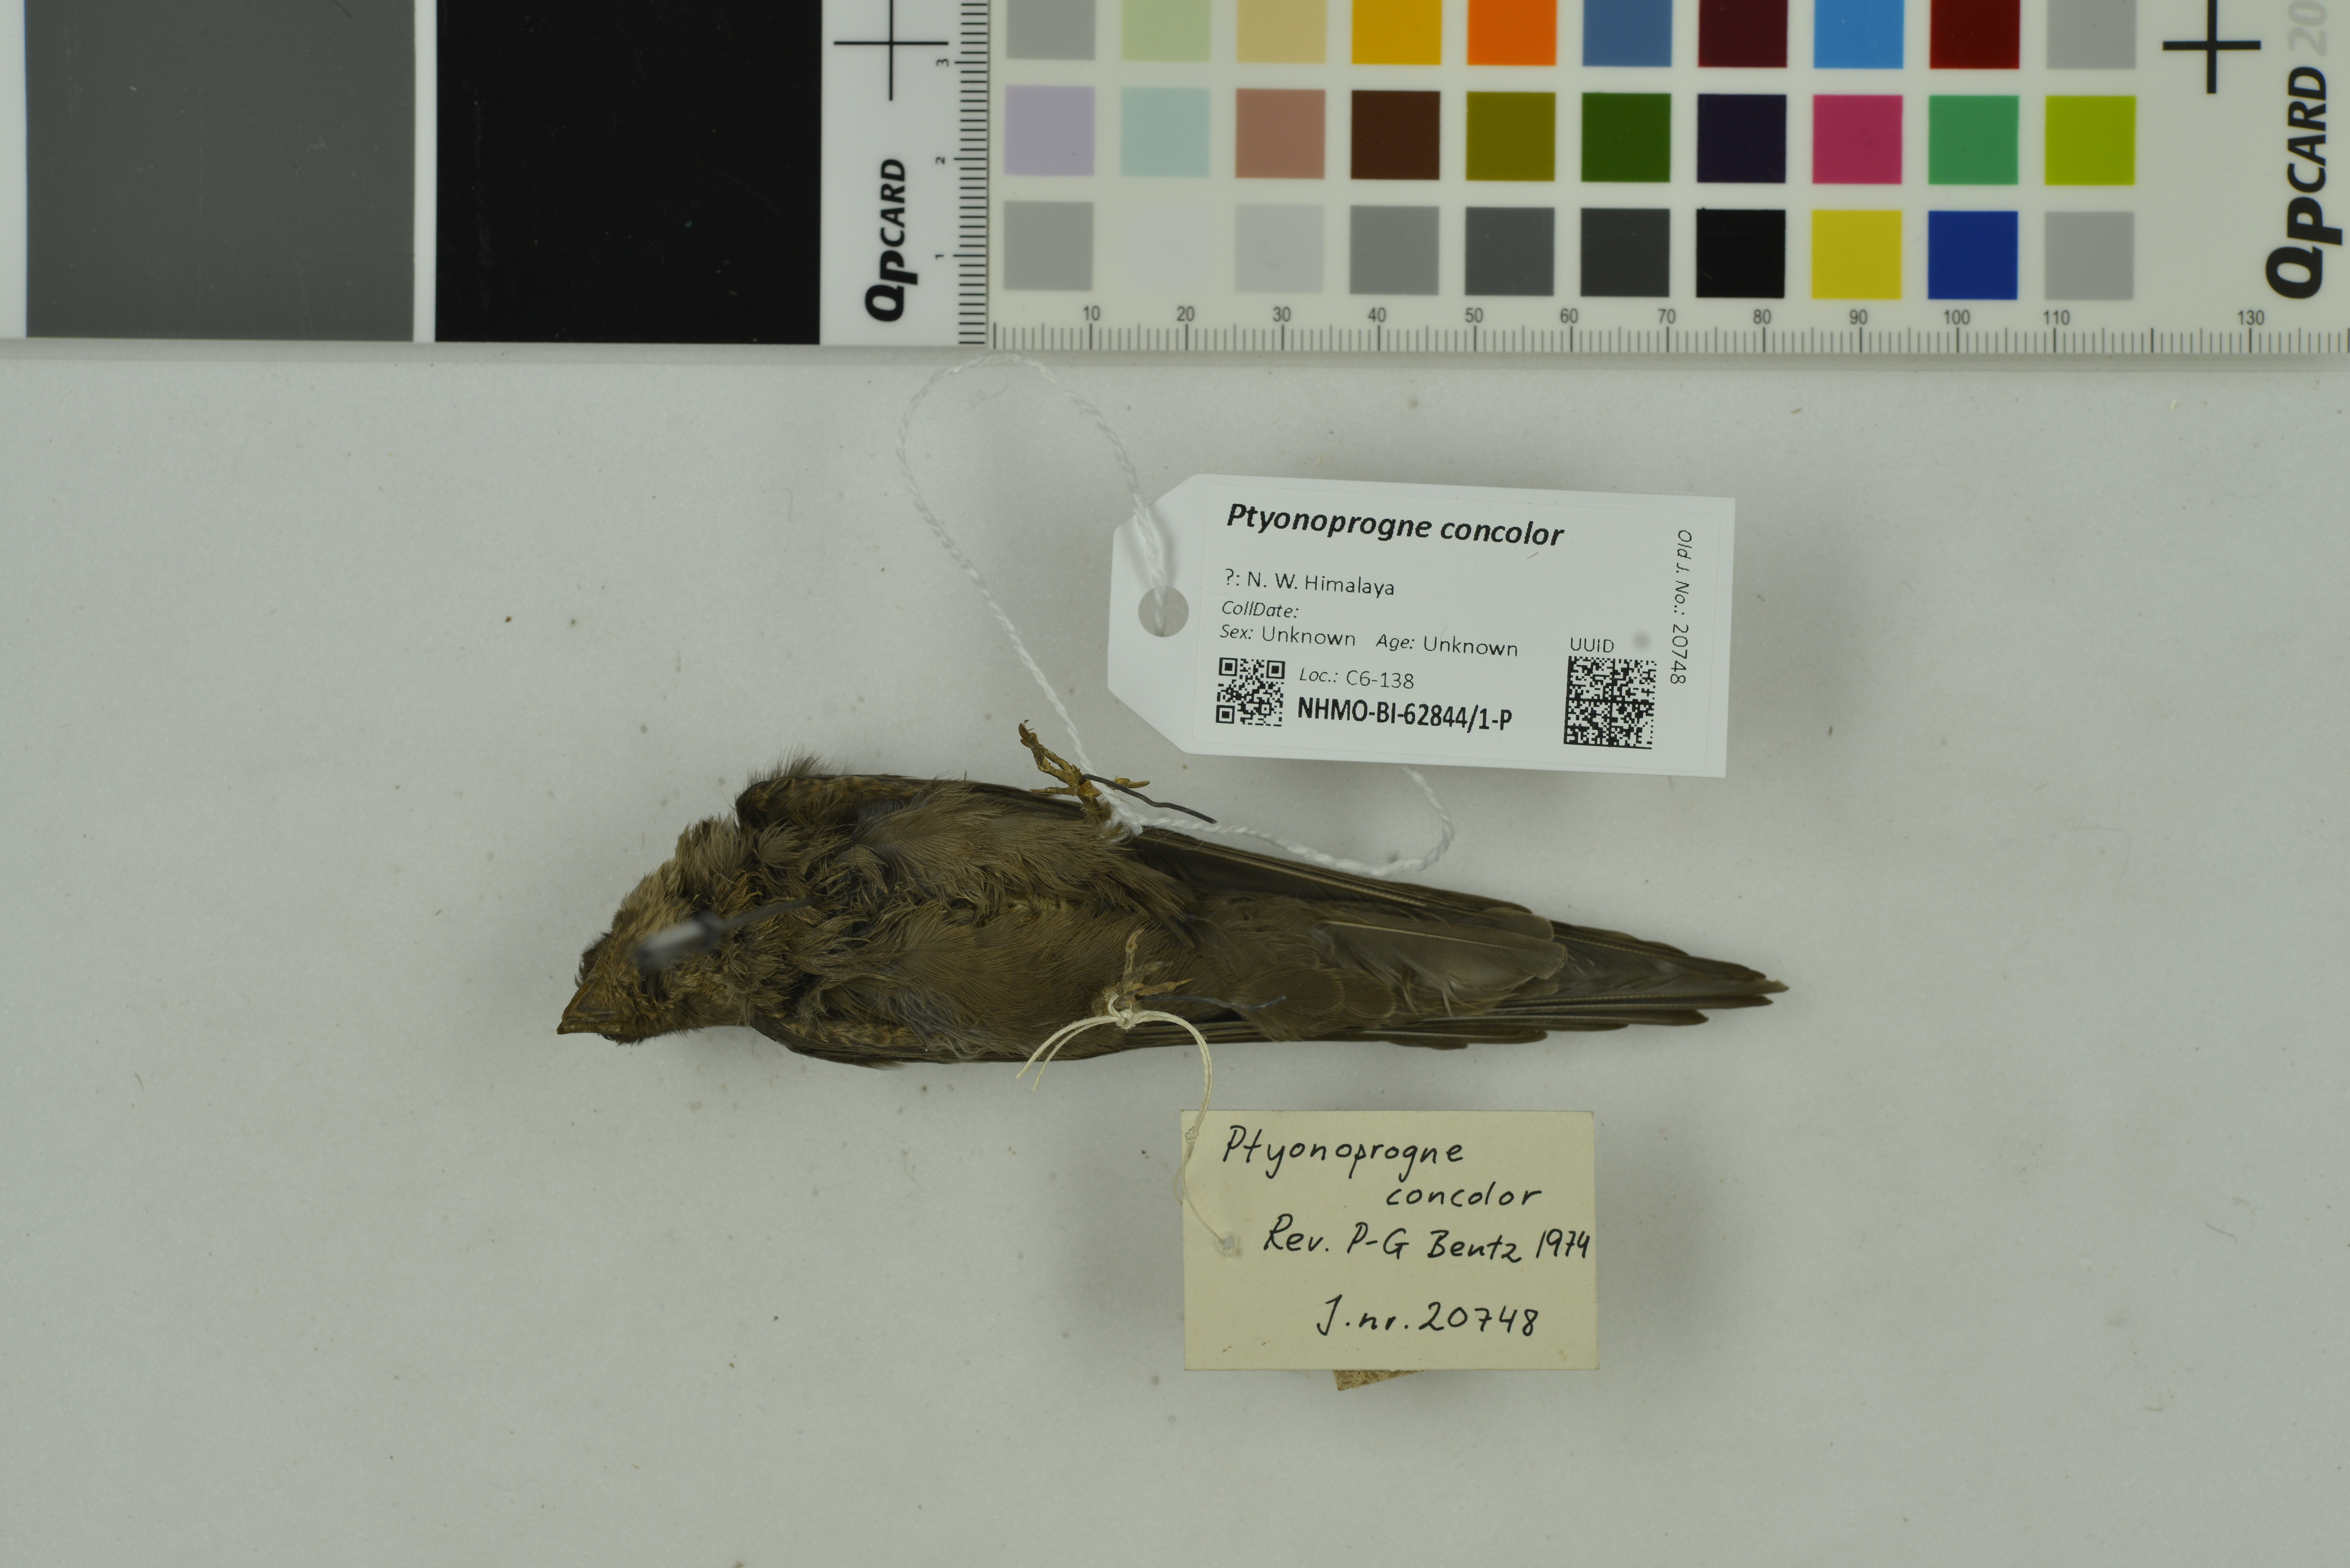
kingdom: Animalia
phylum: Chordata
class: Aves
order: Passeriformes
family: Hirundinidae
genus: Ptyonoprogne
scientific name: Ptyonoprogne concolor
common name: Dusky crag-martin
